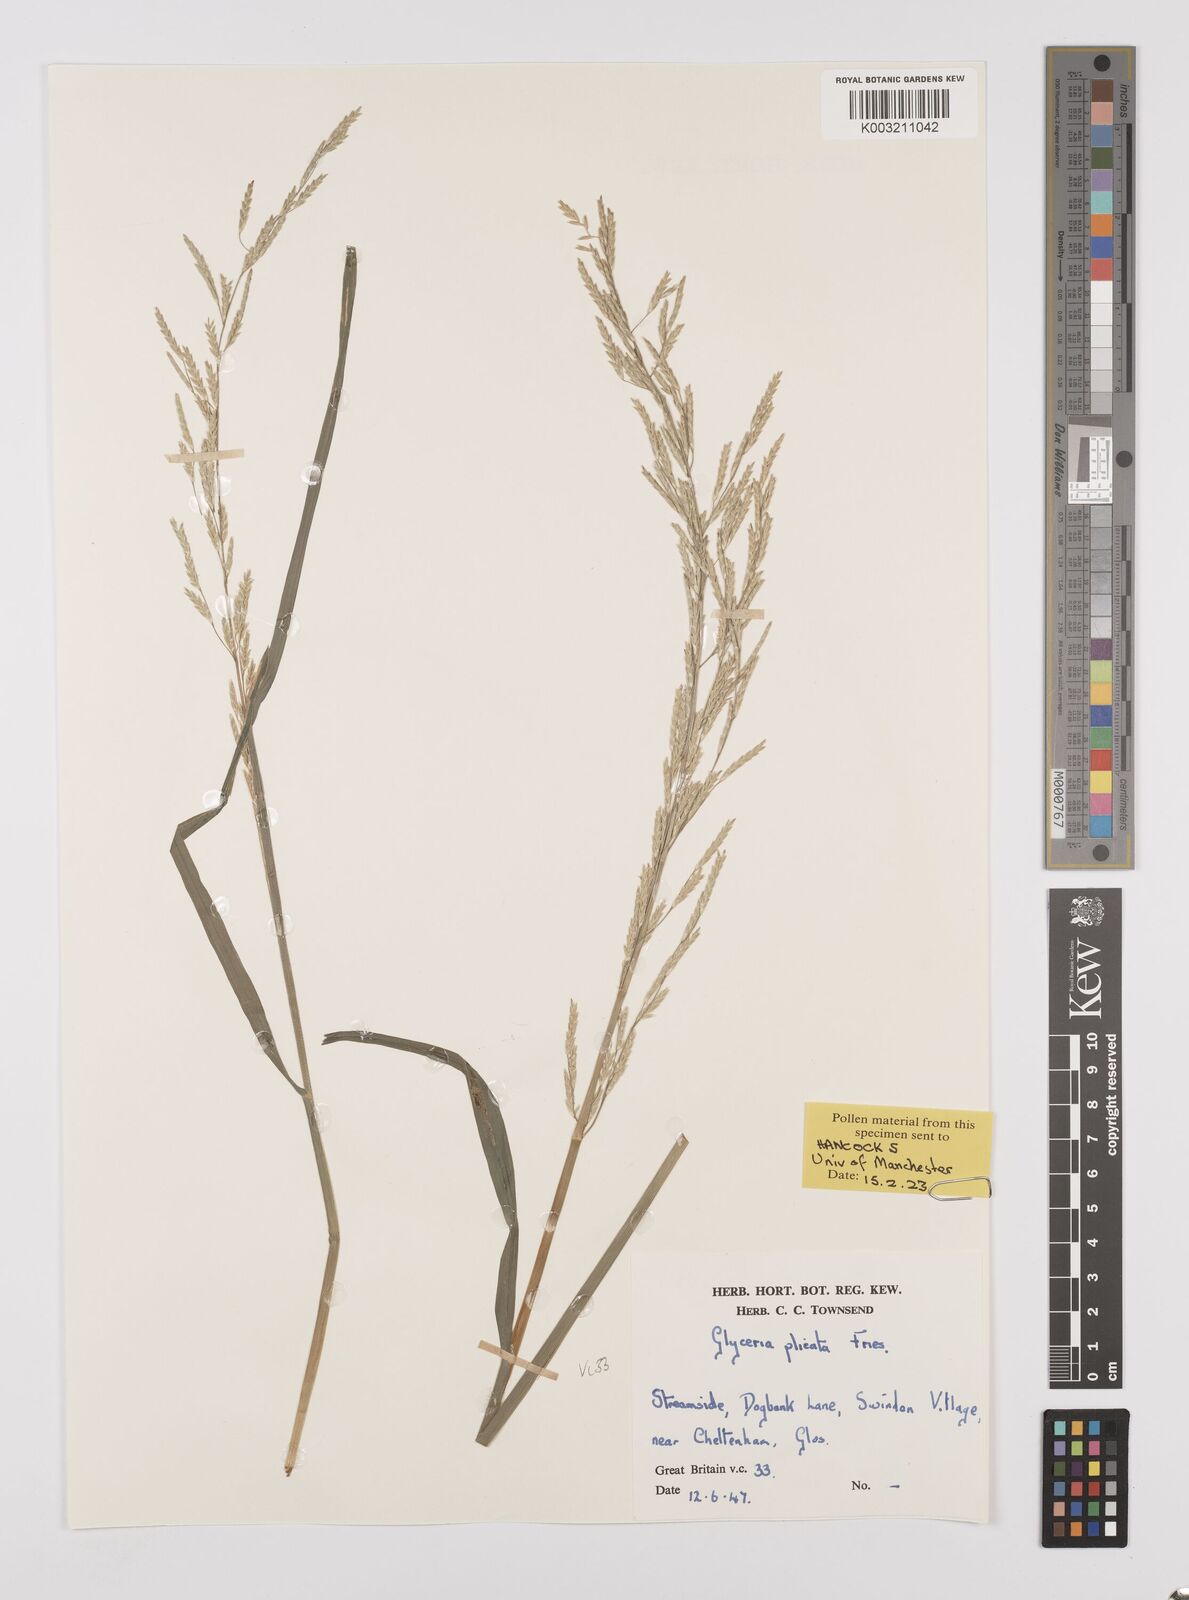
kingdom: Plantae
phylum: Tracheophyta
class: Liliopsida
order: Poales
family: Poaceae
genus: Glyceria
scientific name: Glyceria notata
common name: Plicate sweet-grass
